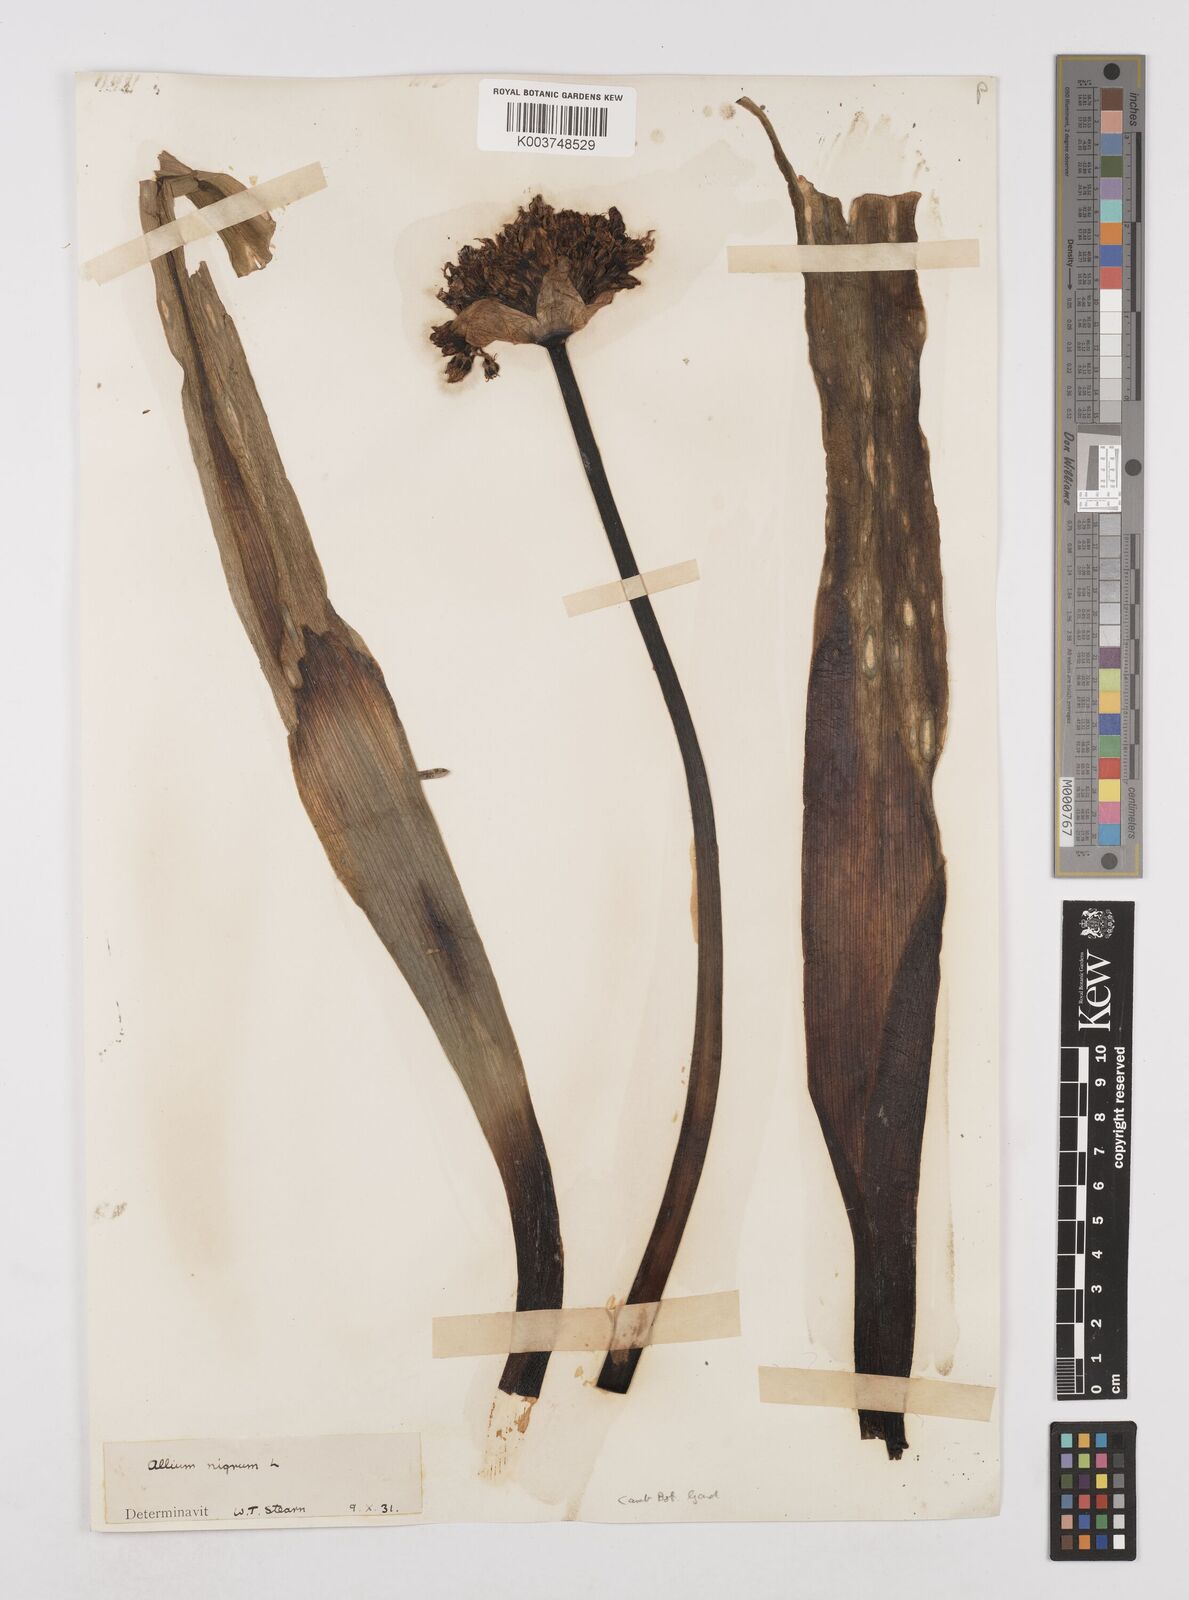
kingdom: Plantae
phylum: Tracheophyta
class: Liliopsida
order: Asparagales
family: Amaryllidaceae
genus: Allium
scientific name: Allium nigrum
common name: Black garlic
